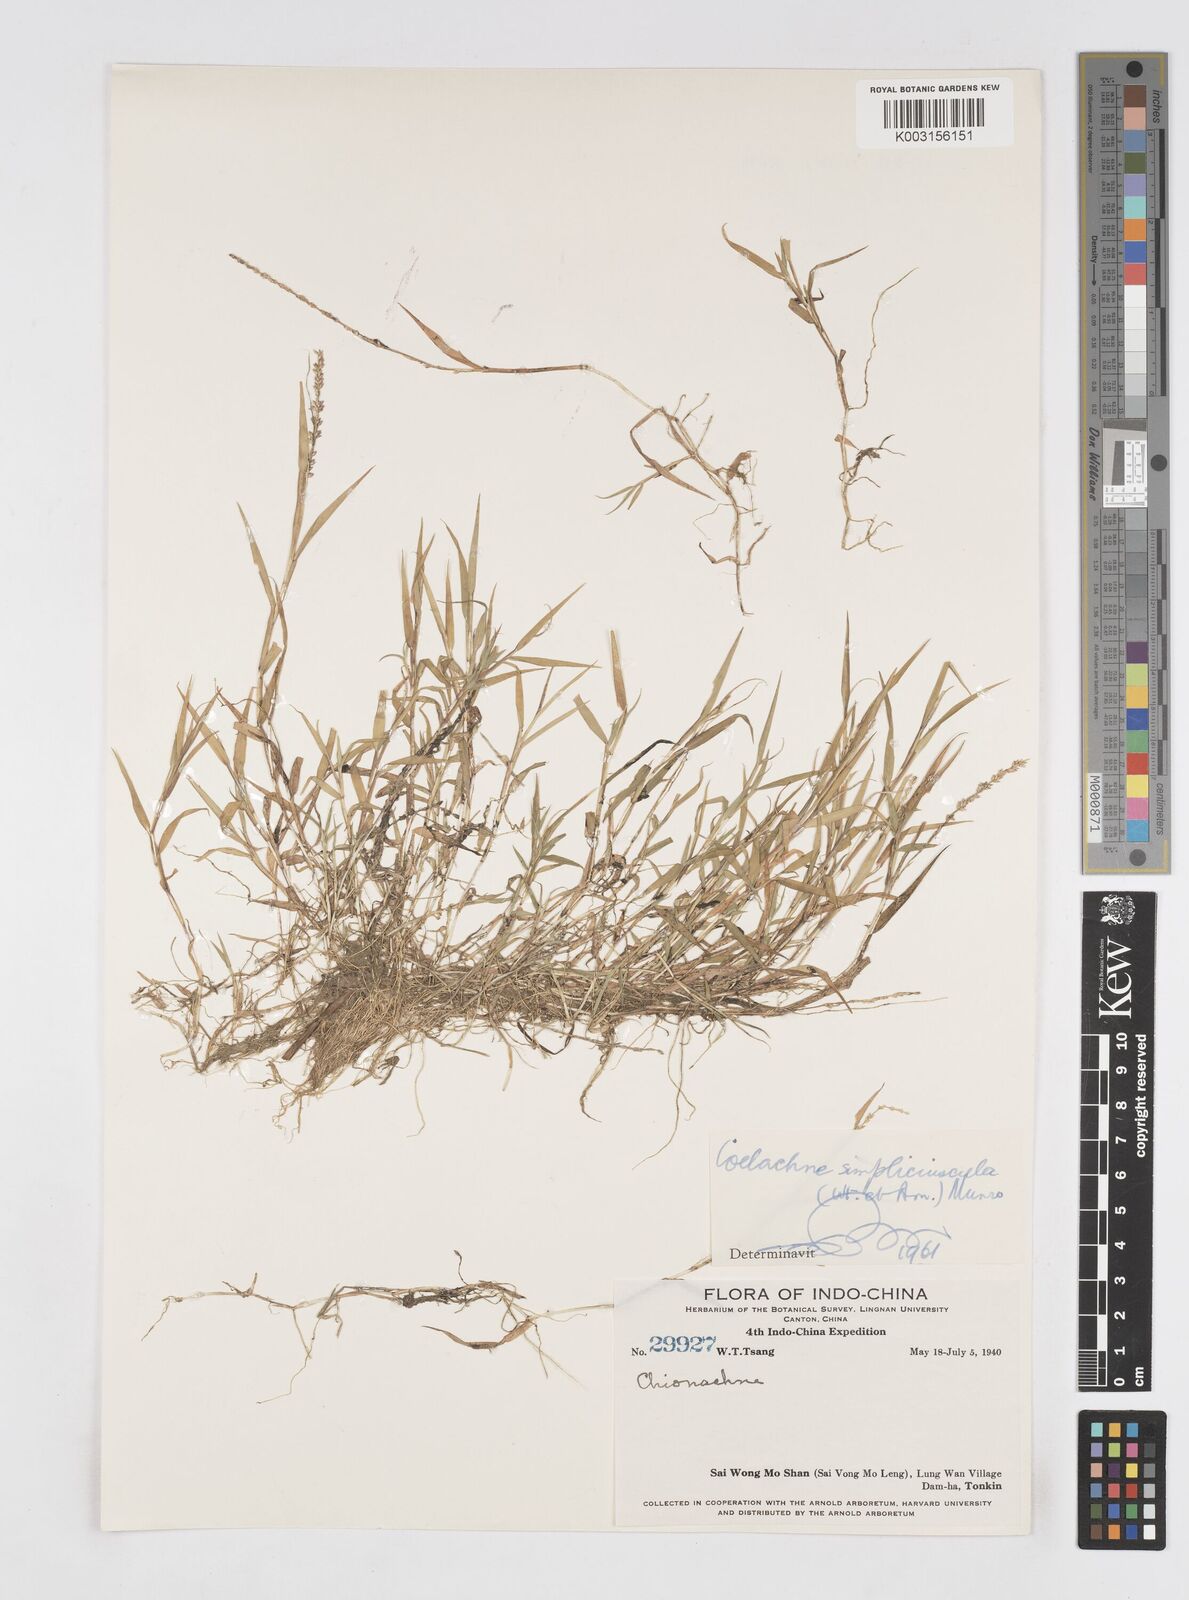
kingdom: Plantae
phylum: Tracheophyta
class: Liliopsida
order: Poales
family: Poaceae
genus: Coelachne
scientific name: Coelachne simpliciuscula
